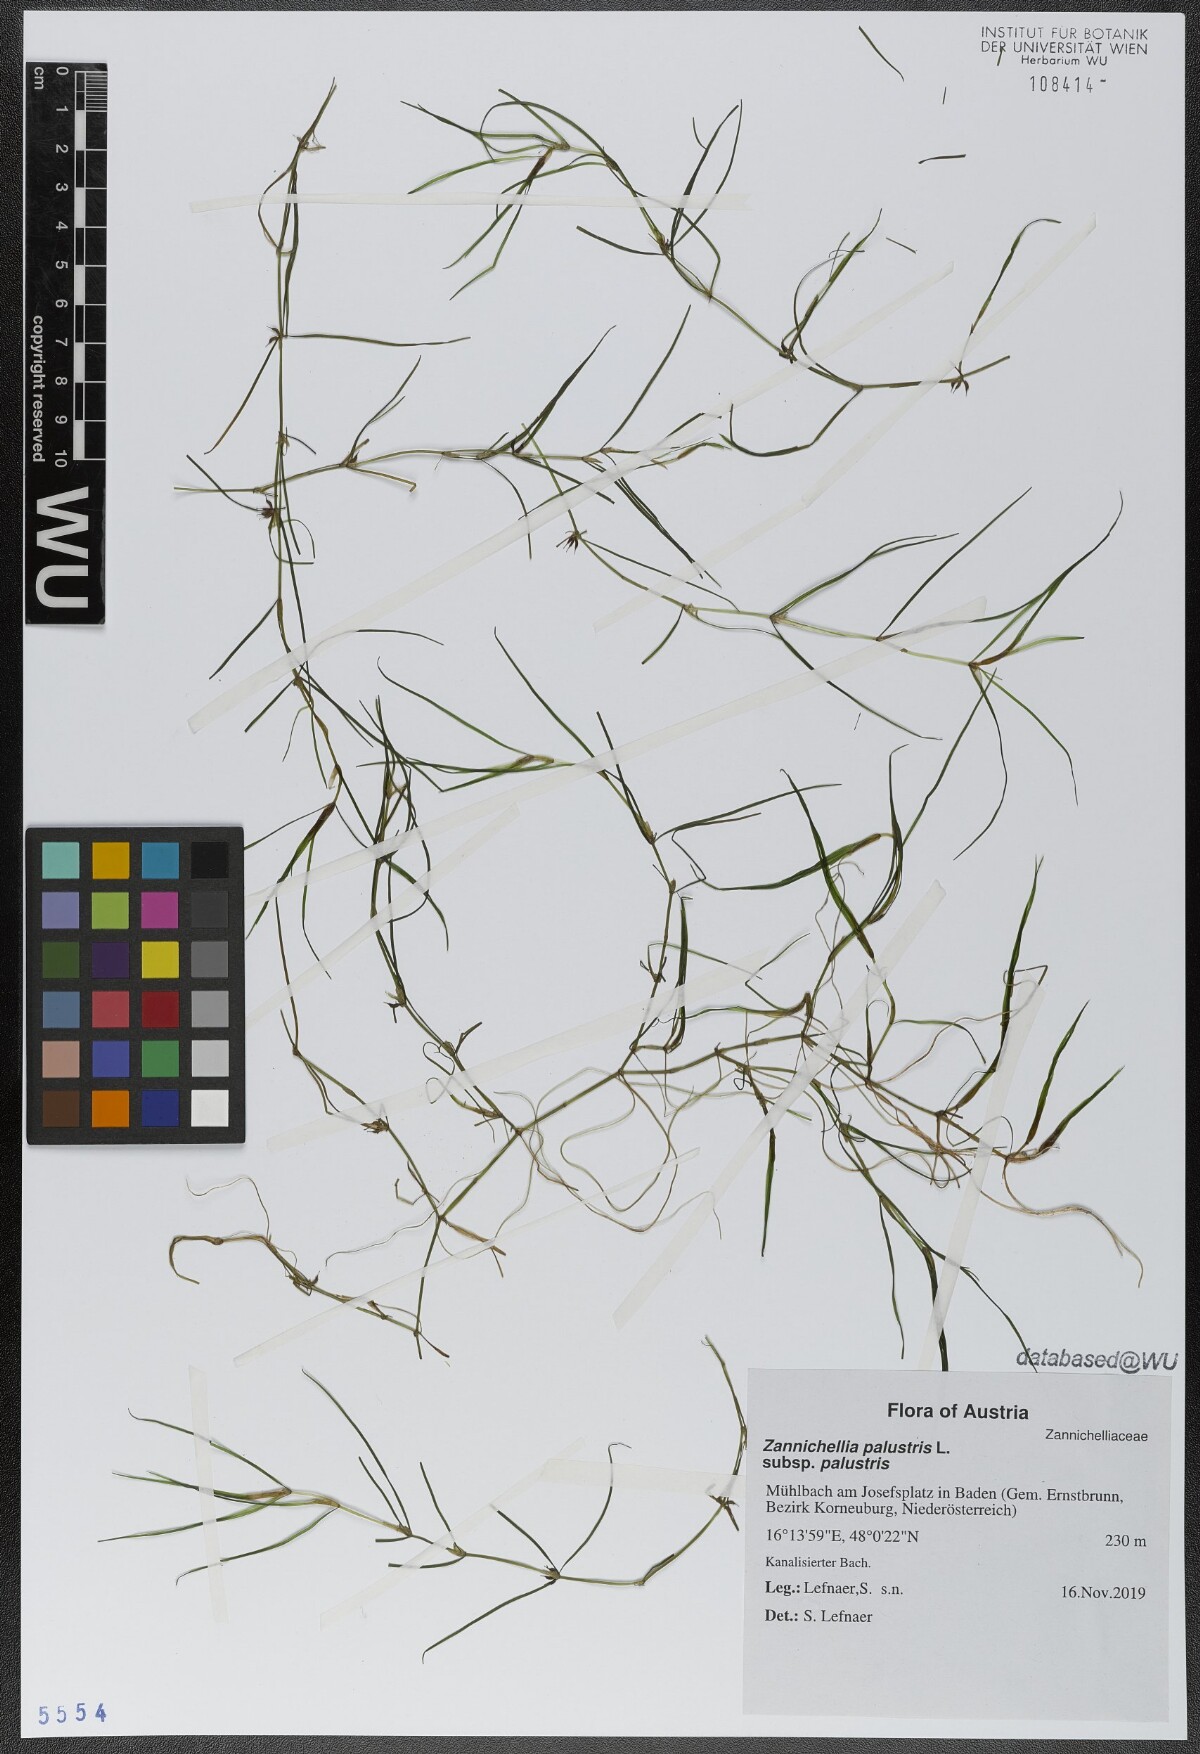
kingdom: Plantae
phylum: Tracheophyta
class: Liliopsida
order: Alismatales
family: Potamogetonaceae
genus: Zannichellia
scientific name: Zannichellia palustris
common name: Horned pondweed
